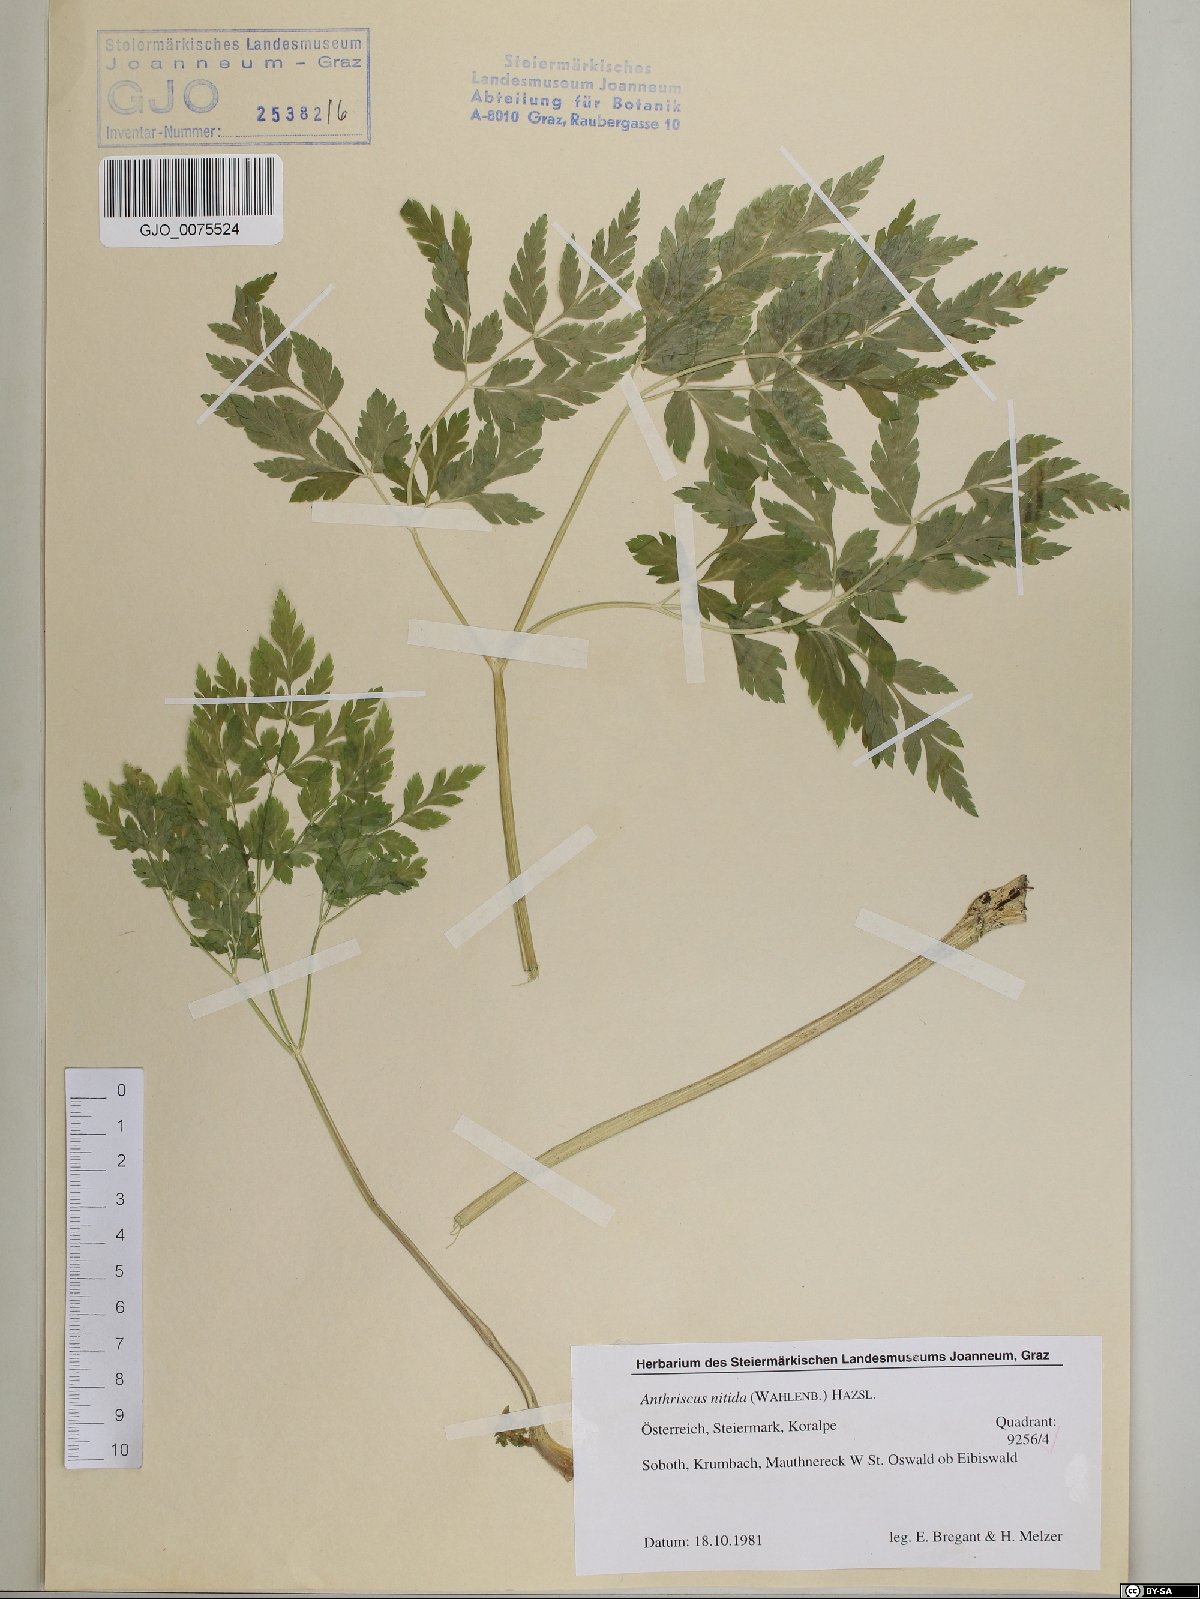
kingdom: Plantae
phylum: Tracheophyta
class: Magnoliopsida
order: Apiales
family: Apiaceae
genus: Anthriscus
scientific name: Anthriscus nitida
